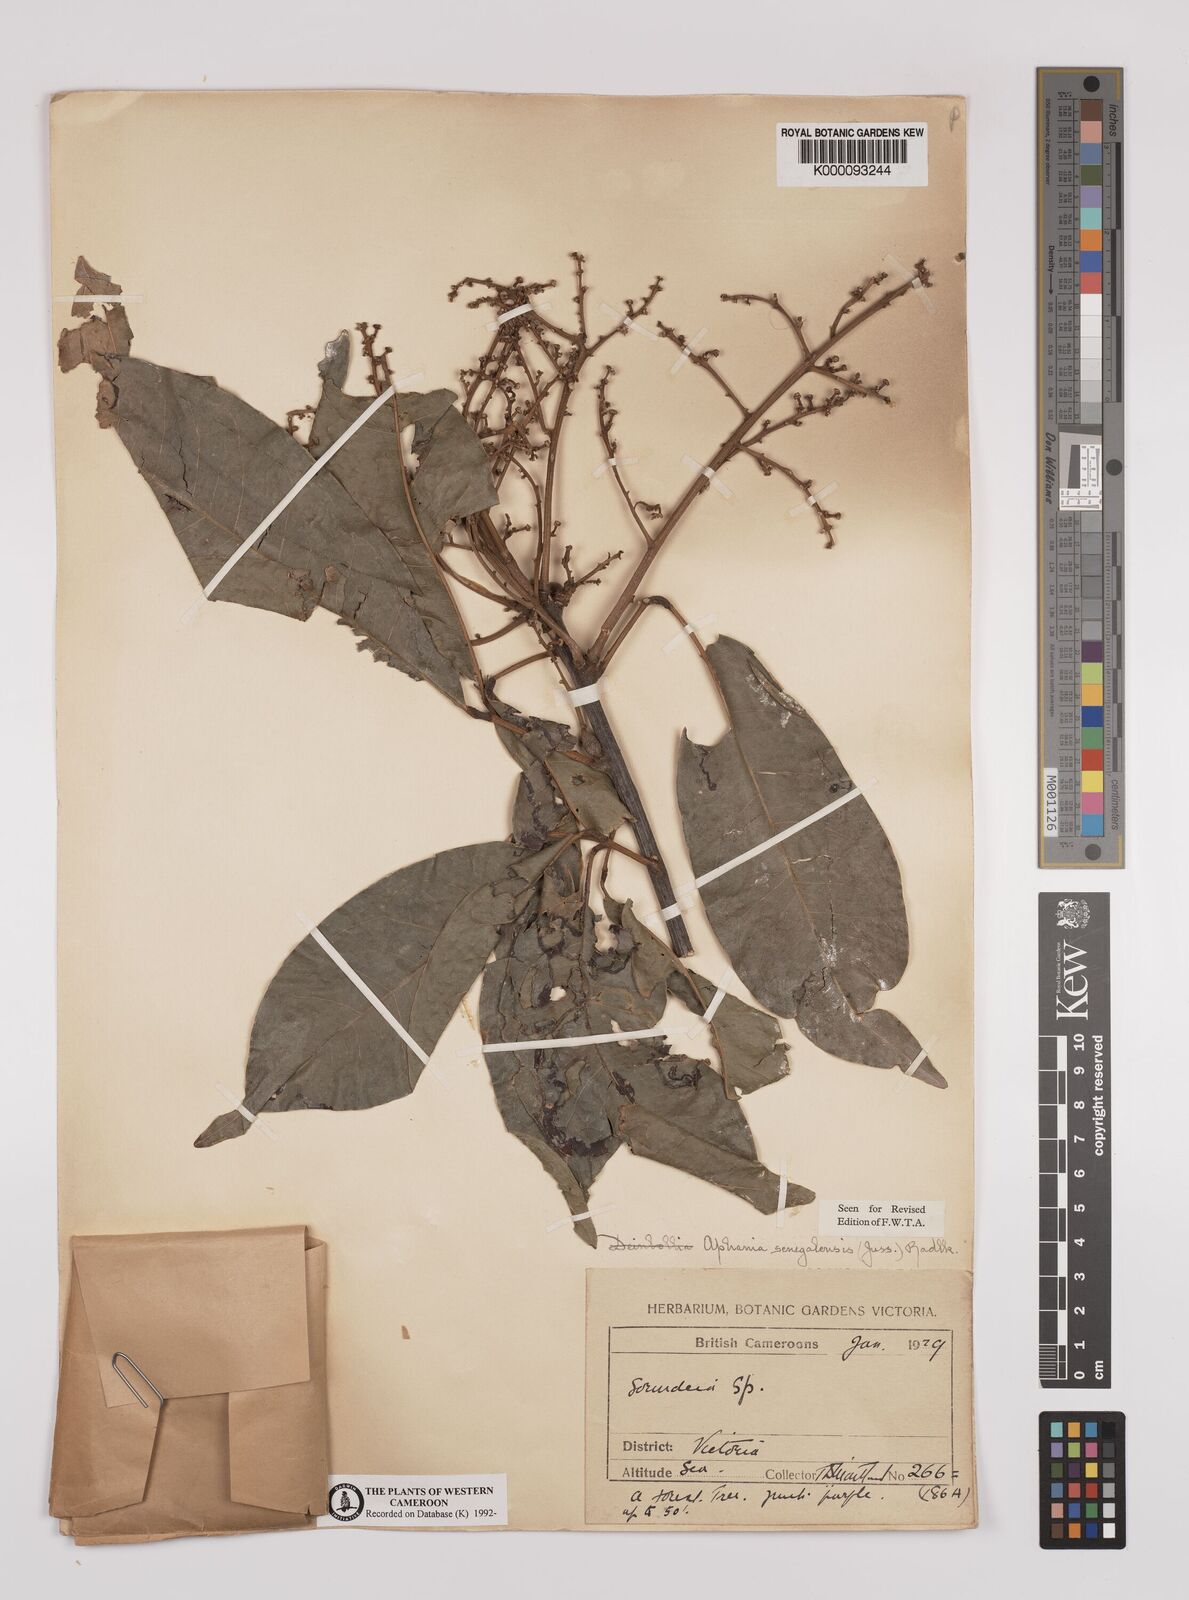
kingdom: Plantae
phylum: Tracheophyta
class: Magnoliopsida
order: Sapindales
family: Sapindaceae
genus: Lepisanthes
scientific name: Lepisanthes senegalensis
